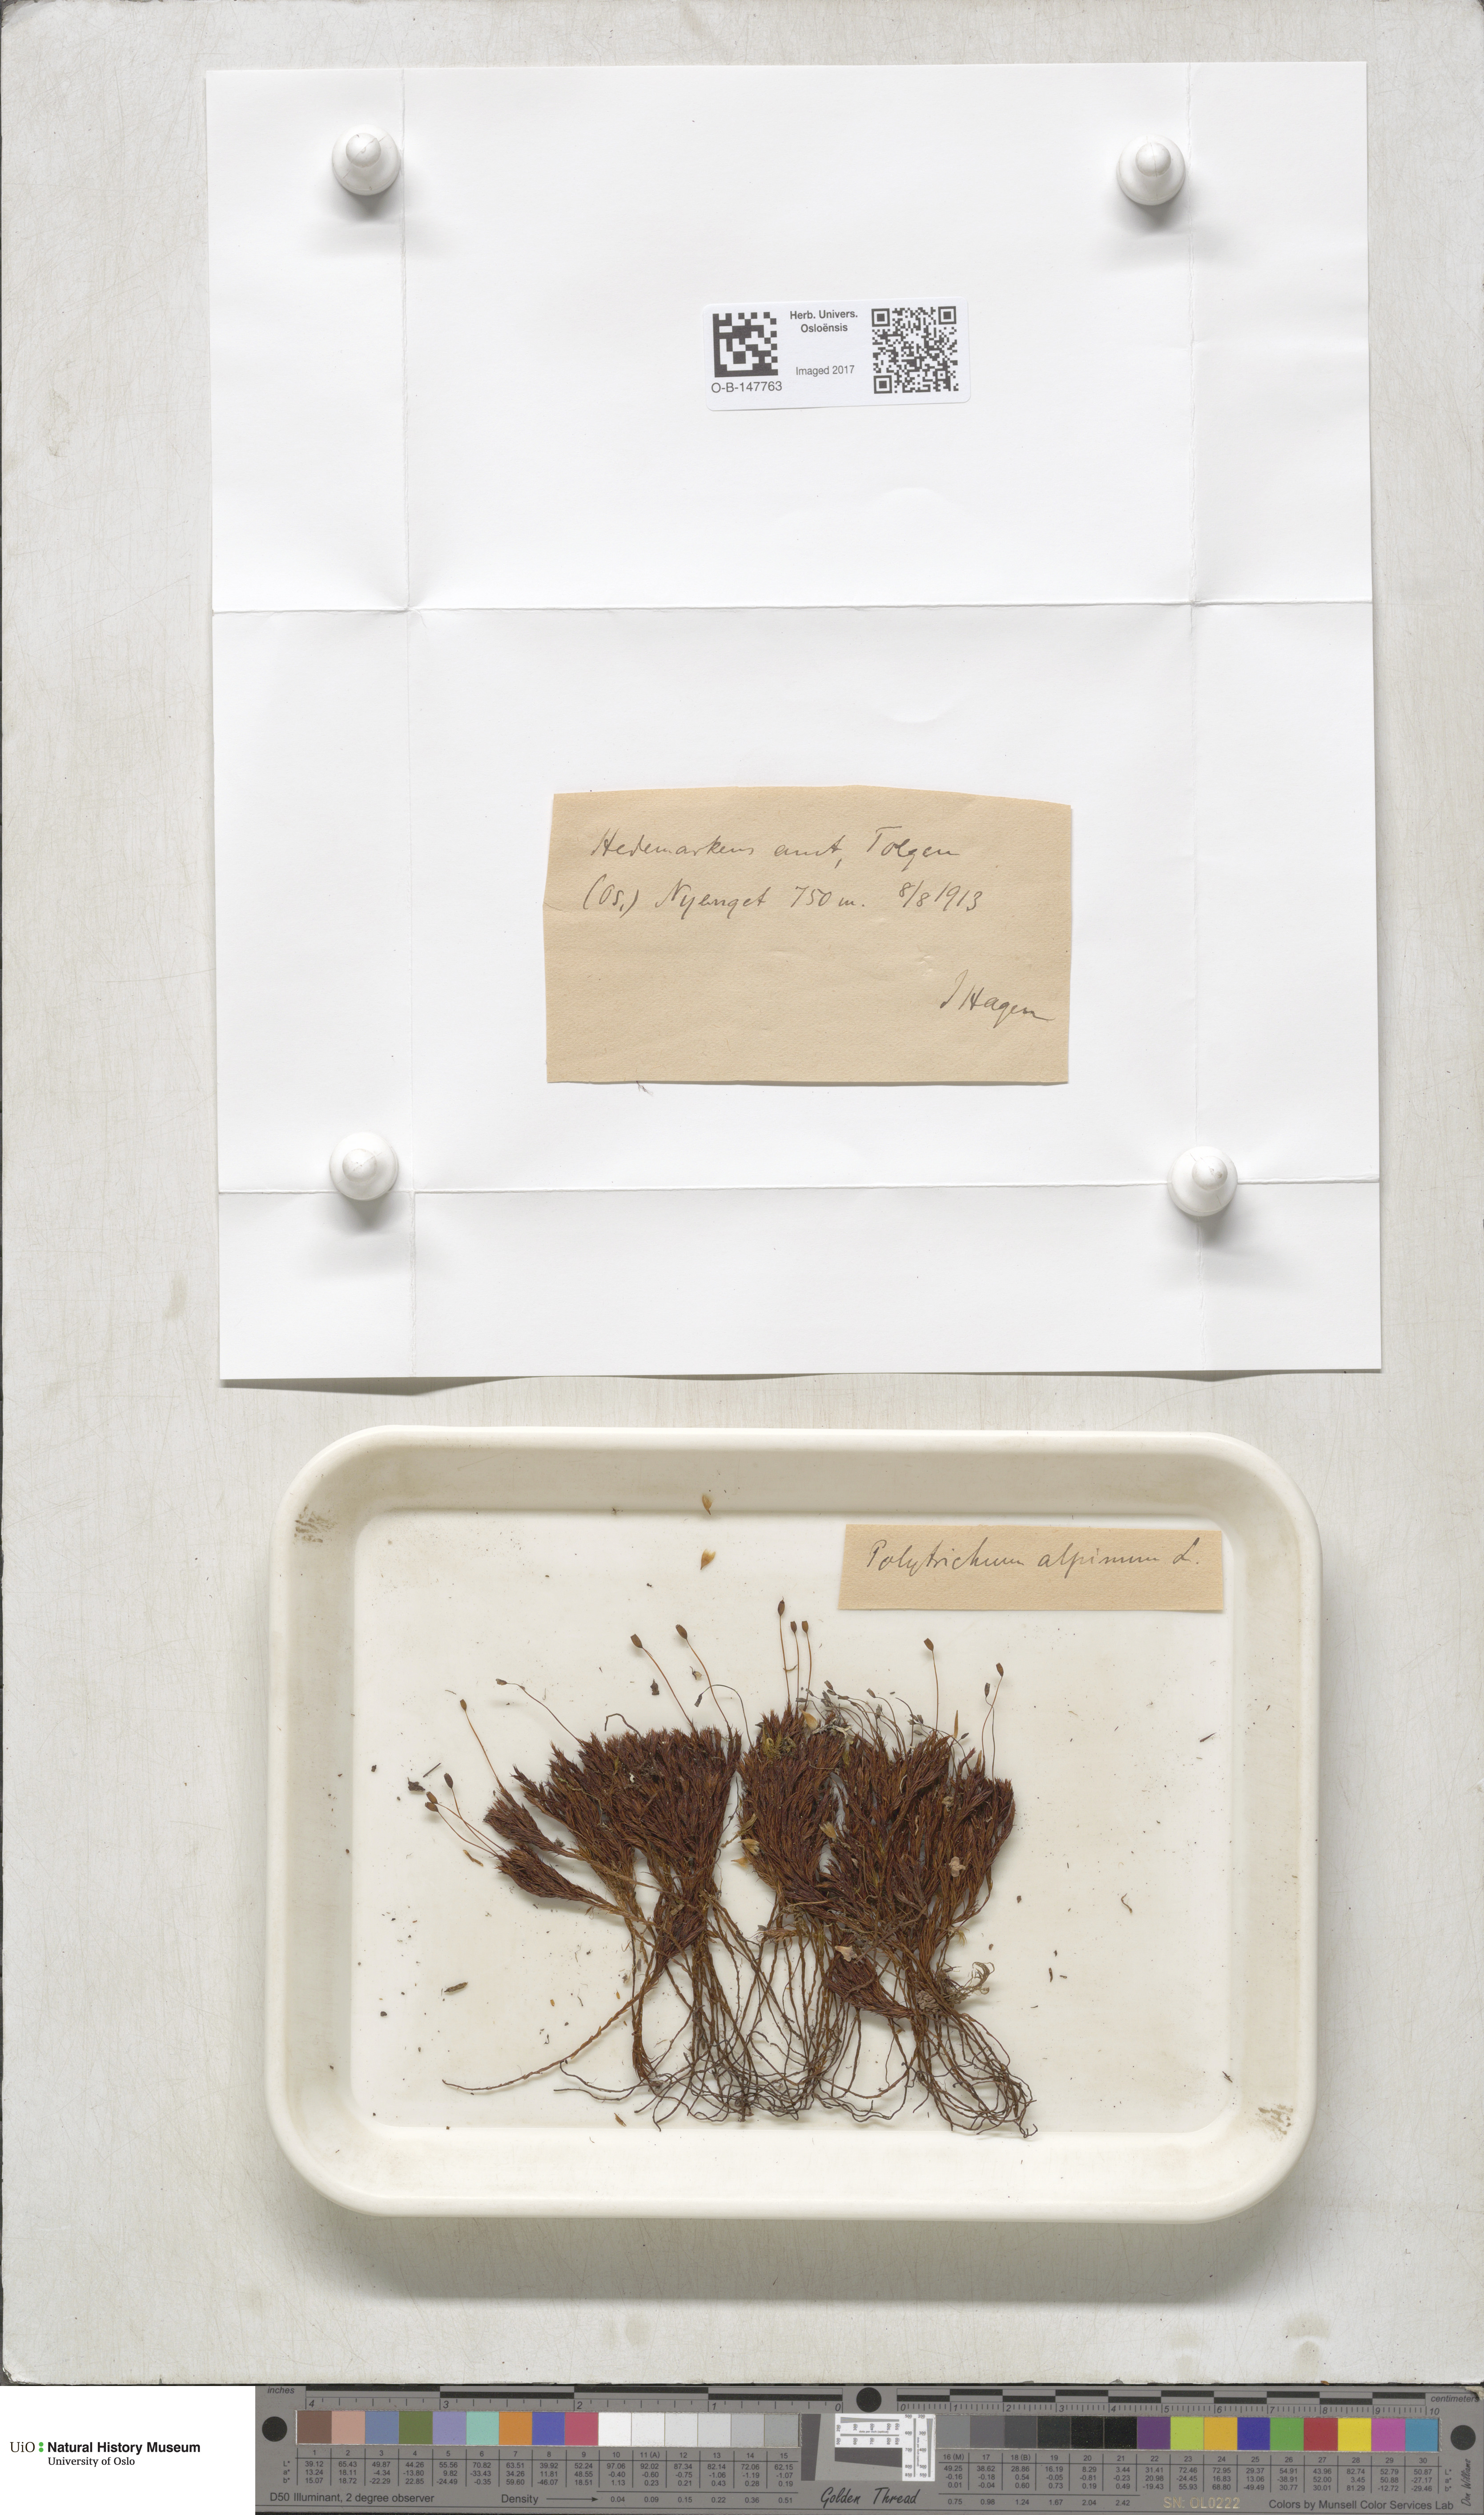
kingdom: Plantae
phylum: Bryophyta
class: Polytrichopsida
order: Polytrichales
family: Polytrichaceae
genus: Polytrichastrum
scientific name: Polytrichastrum alpinum
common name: Alpine haircap
